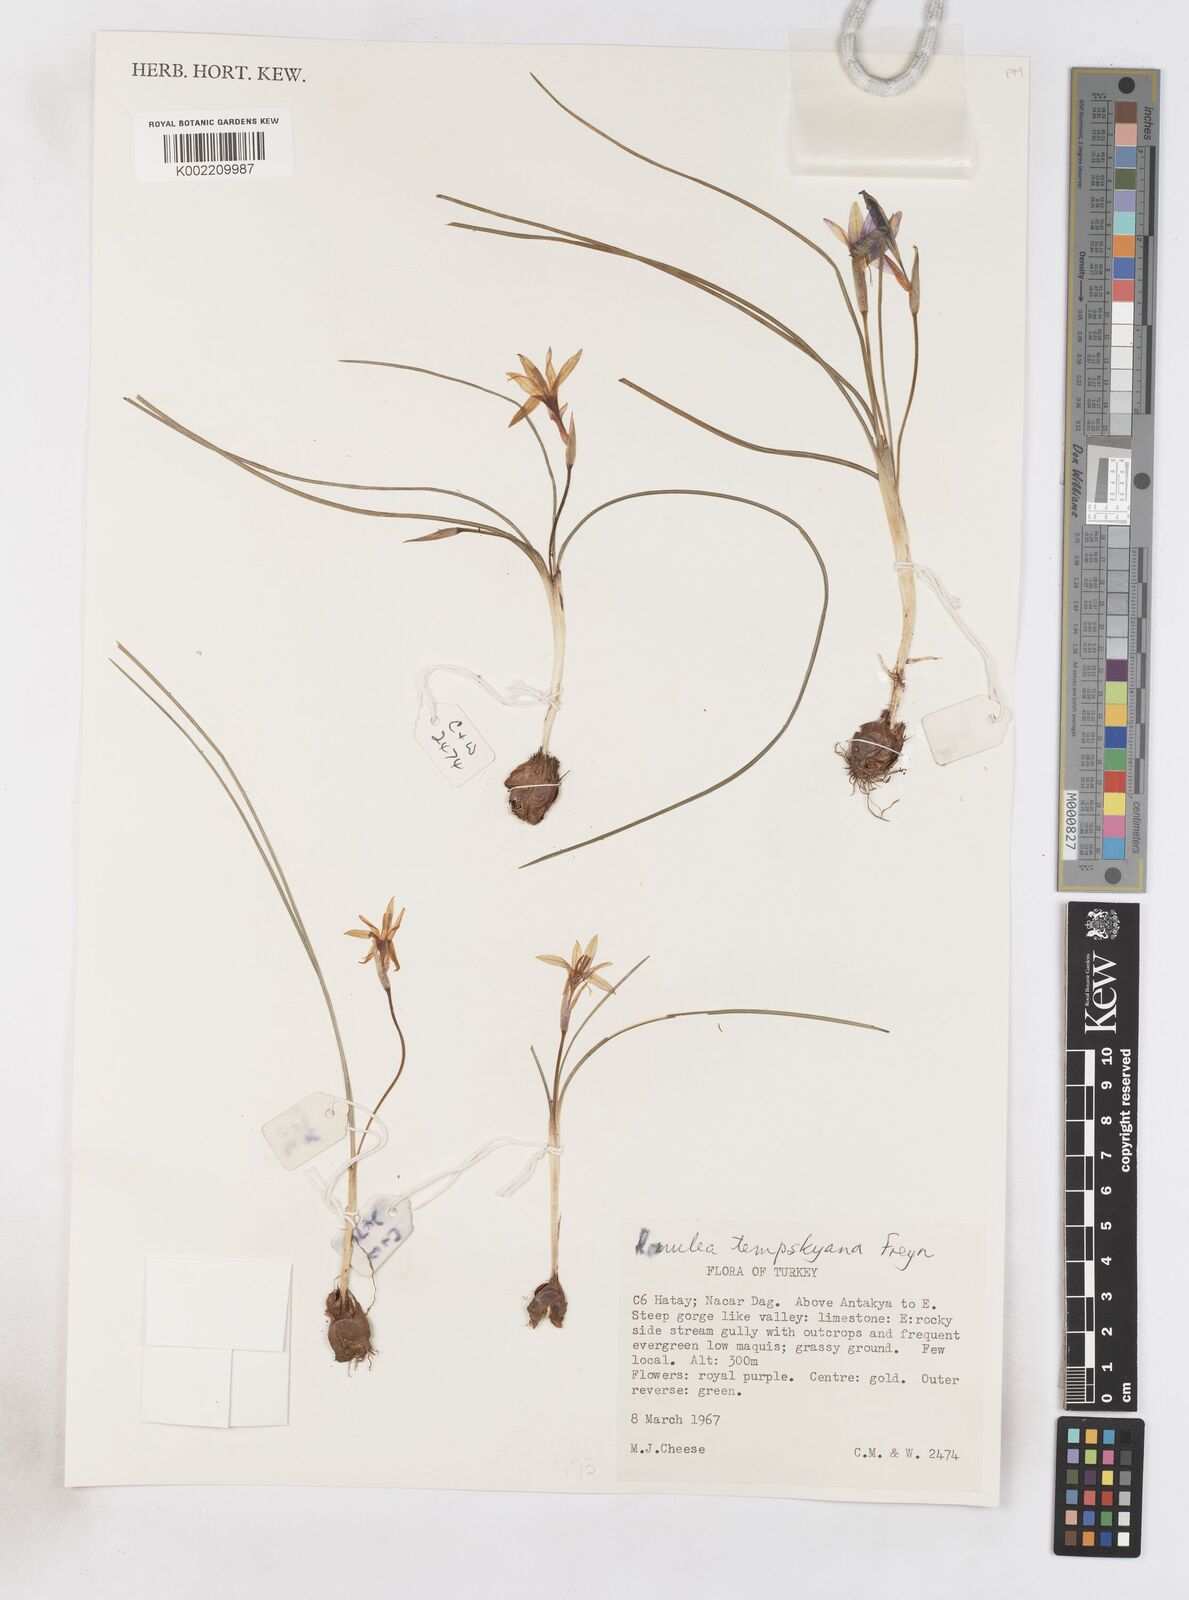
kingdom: Plantae
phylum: Tracheophyta
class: Liliopsida
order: Asparagales
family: Iridaceae
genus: Romulea
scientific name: Romulea tempskyana
